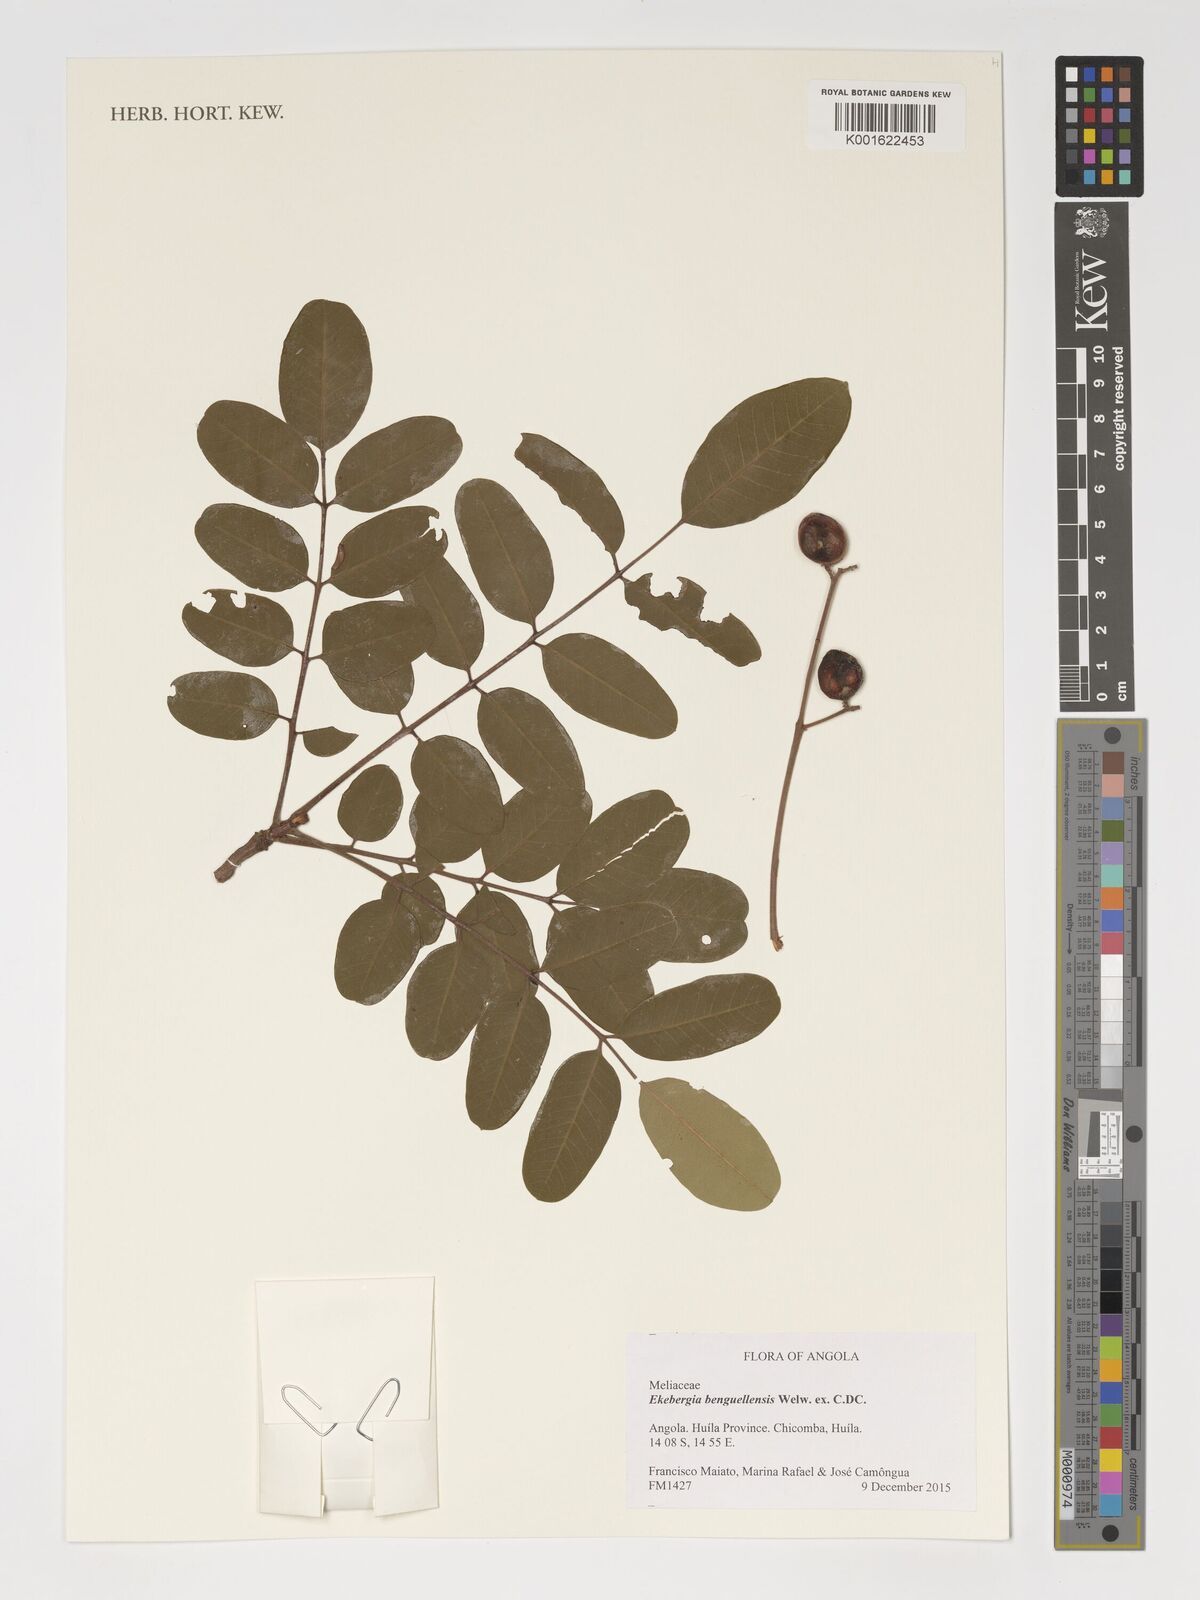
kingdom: Plantae
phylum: Tracheophyta
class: Magnoliopsida
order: Sapindales
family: Meliaceae
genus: Ekebergia
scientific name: Ekebergia benguelensis
